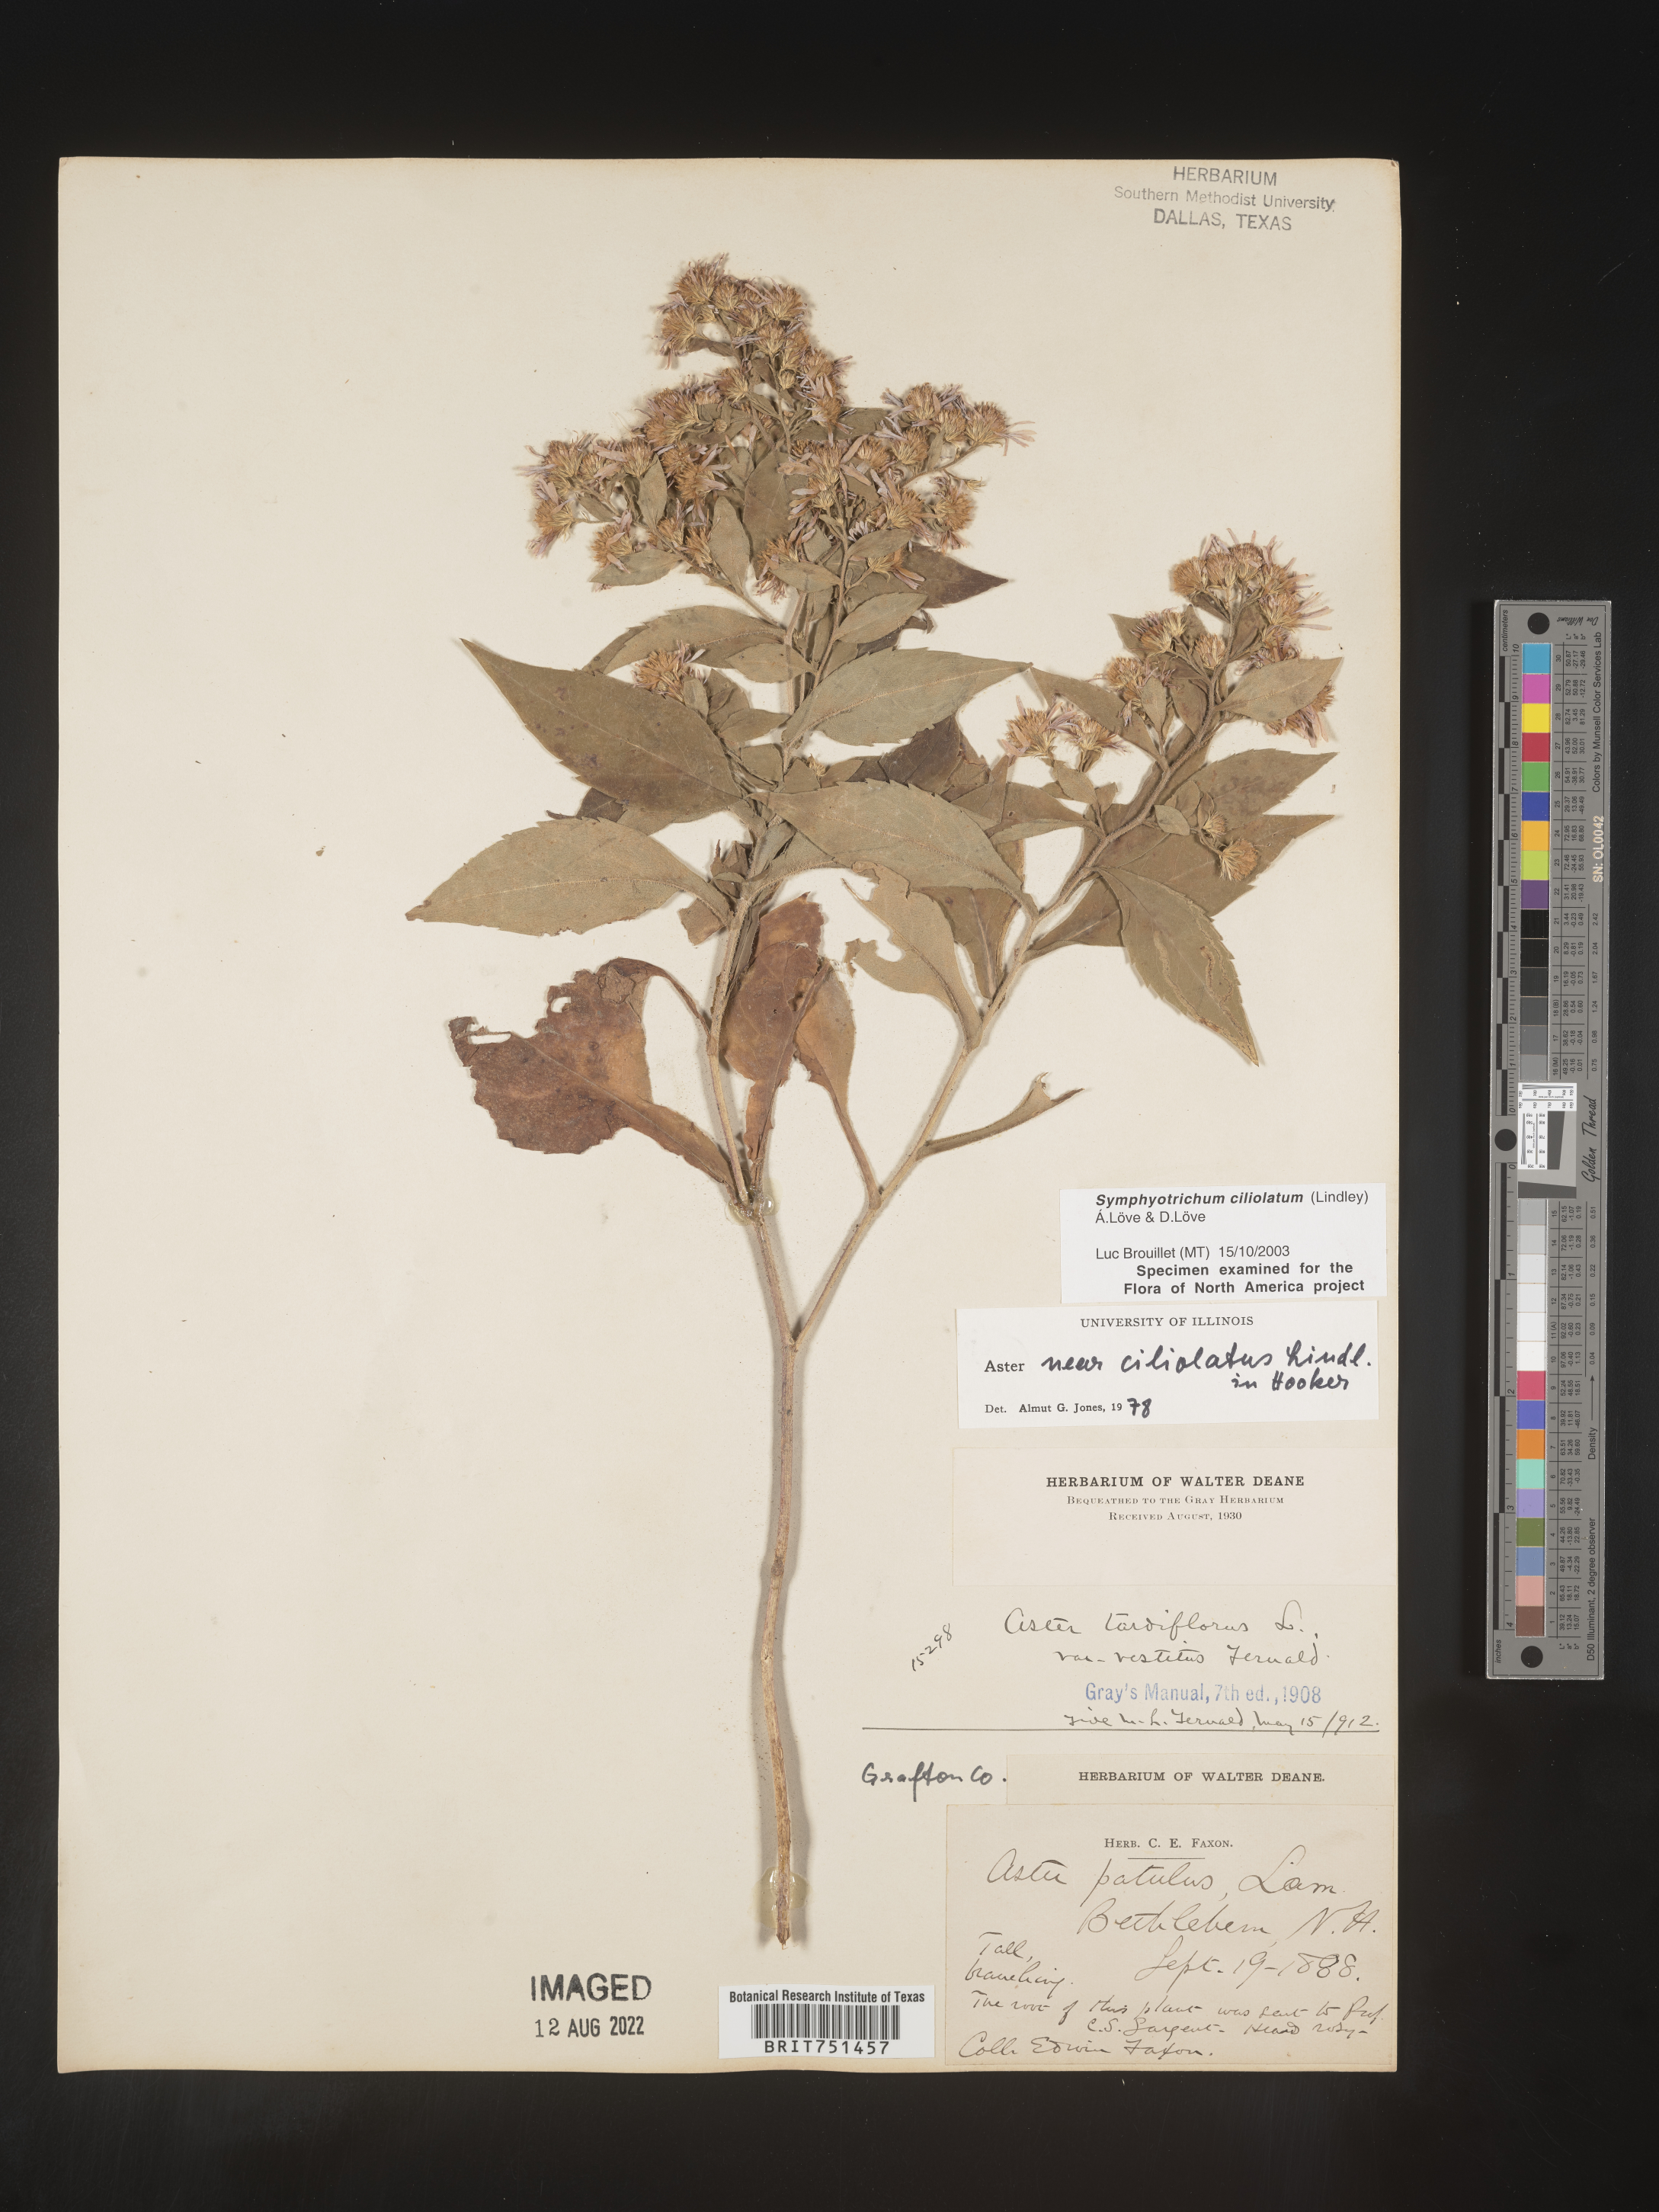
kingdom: Plantae
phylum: Tracheophyta
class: Magnoliopsida
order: Asterales
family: Asteraceae
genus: Symphyotrichum
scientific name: Symphyotrichum ciliolatum
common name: Fringed blue aster
